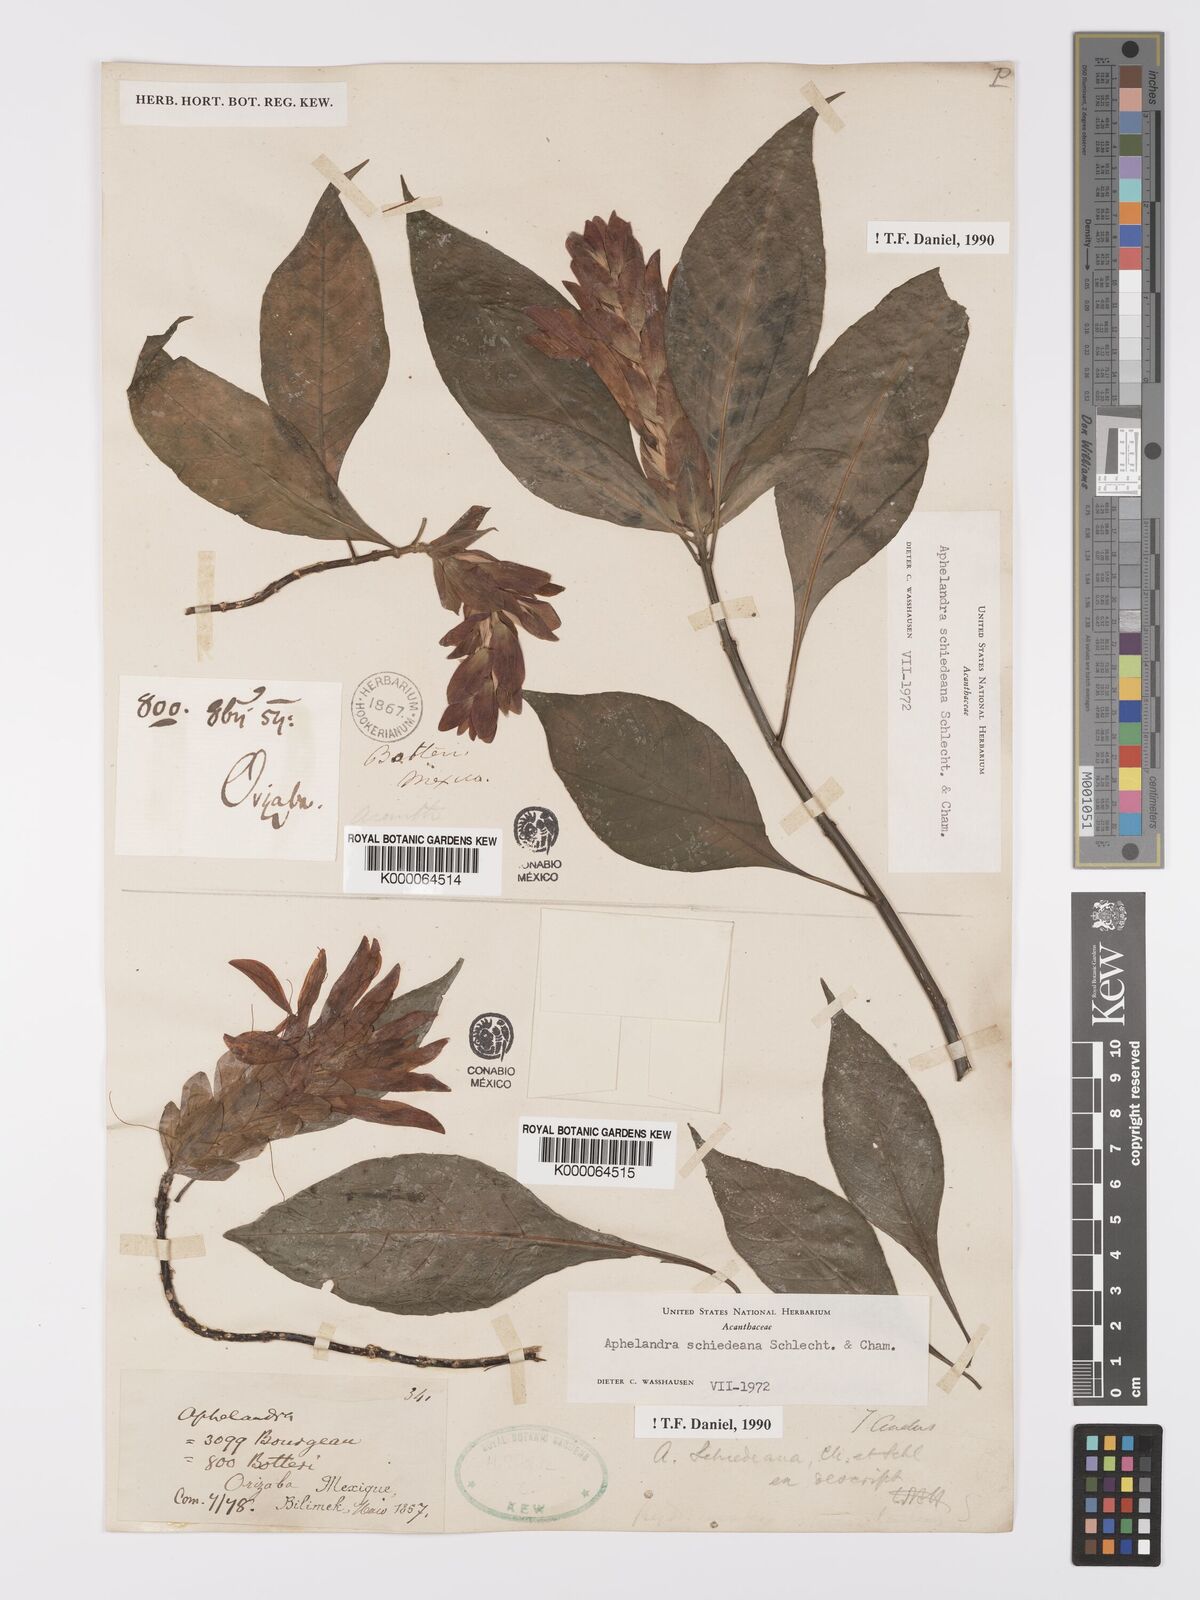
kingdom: Plantae
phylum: Tracheophyta
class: Magnoliopsida
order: Lamiales
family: Acanthaceae
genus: Aphelandra
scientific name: Aphelandra schiedeana
